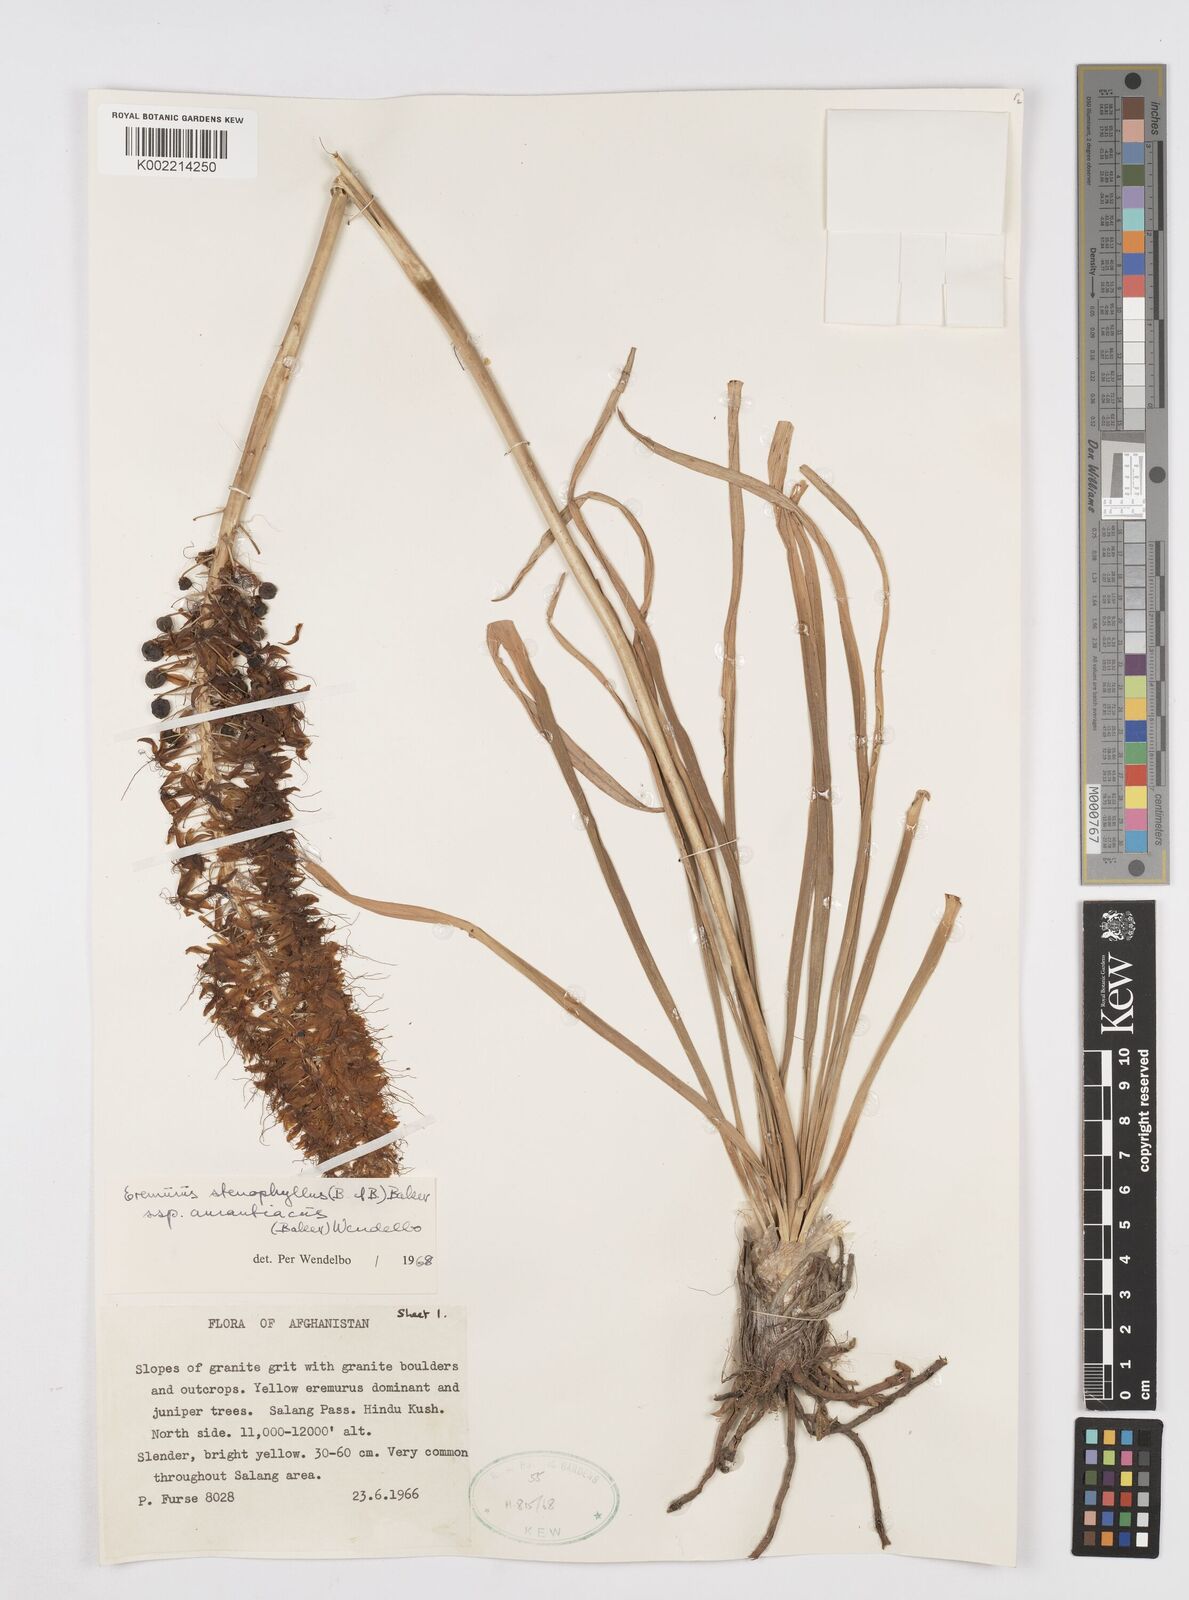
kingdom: Plantae
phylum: Tracheophyta
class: Liliopsida
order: Asparagales
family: Asphodelaceae
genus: Eremurus
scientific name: Eremurus stenophyllus
